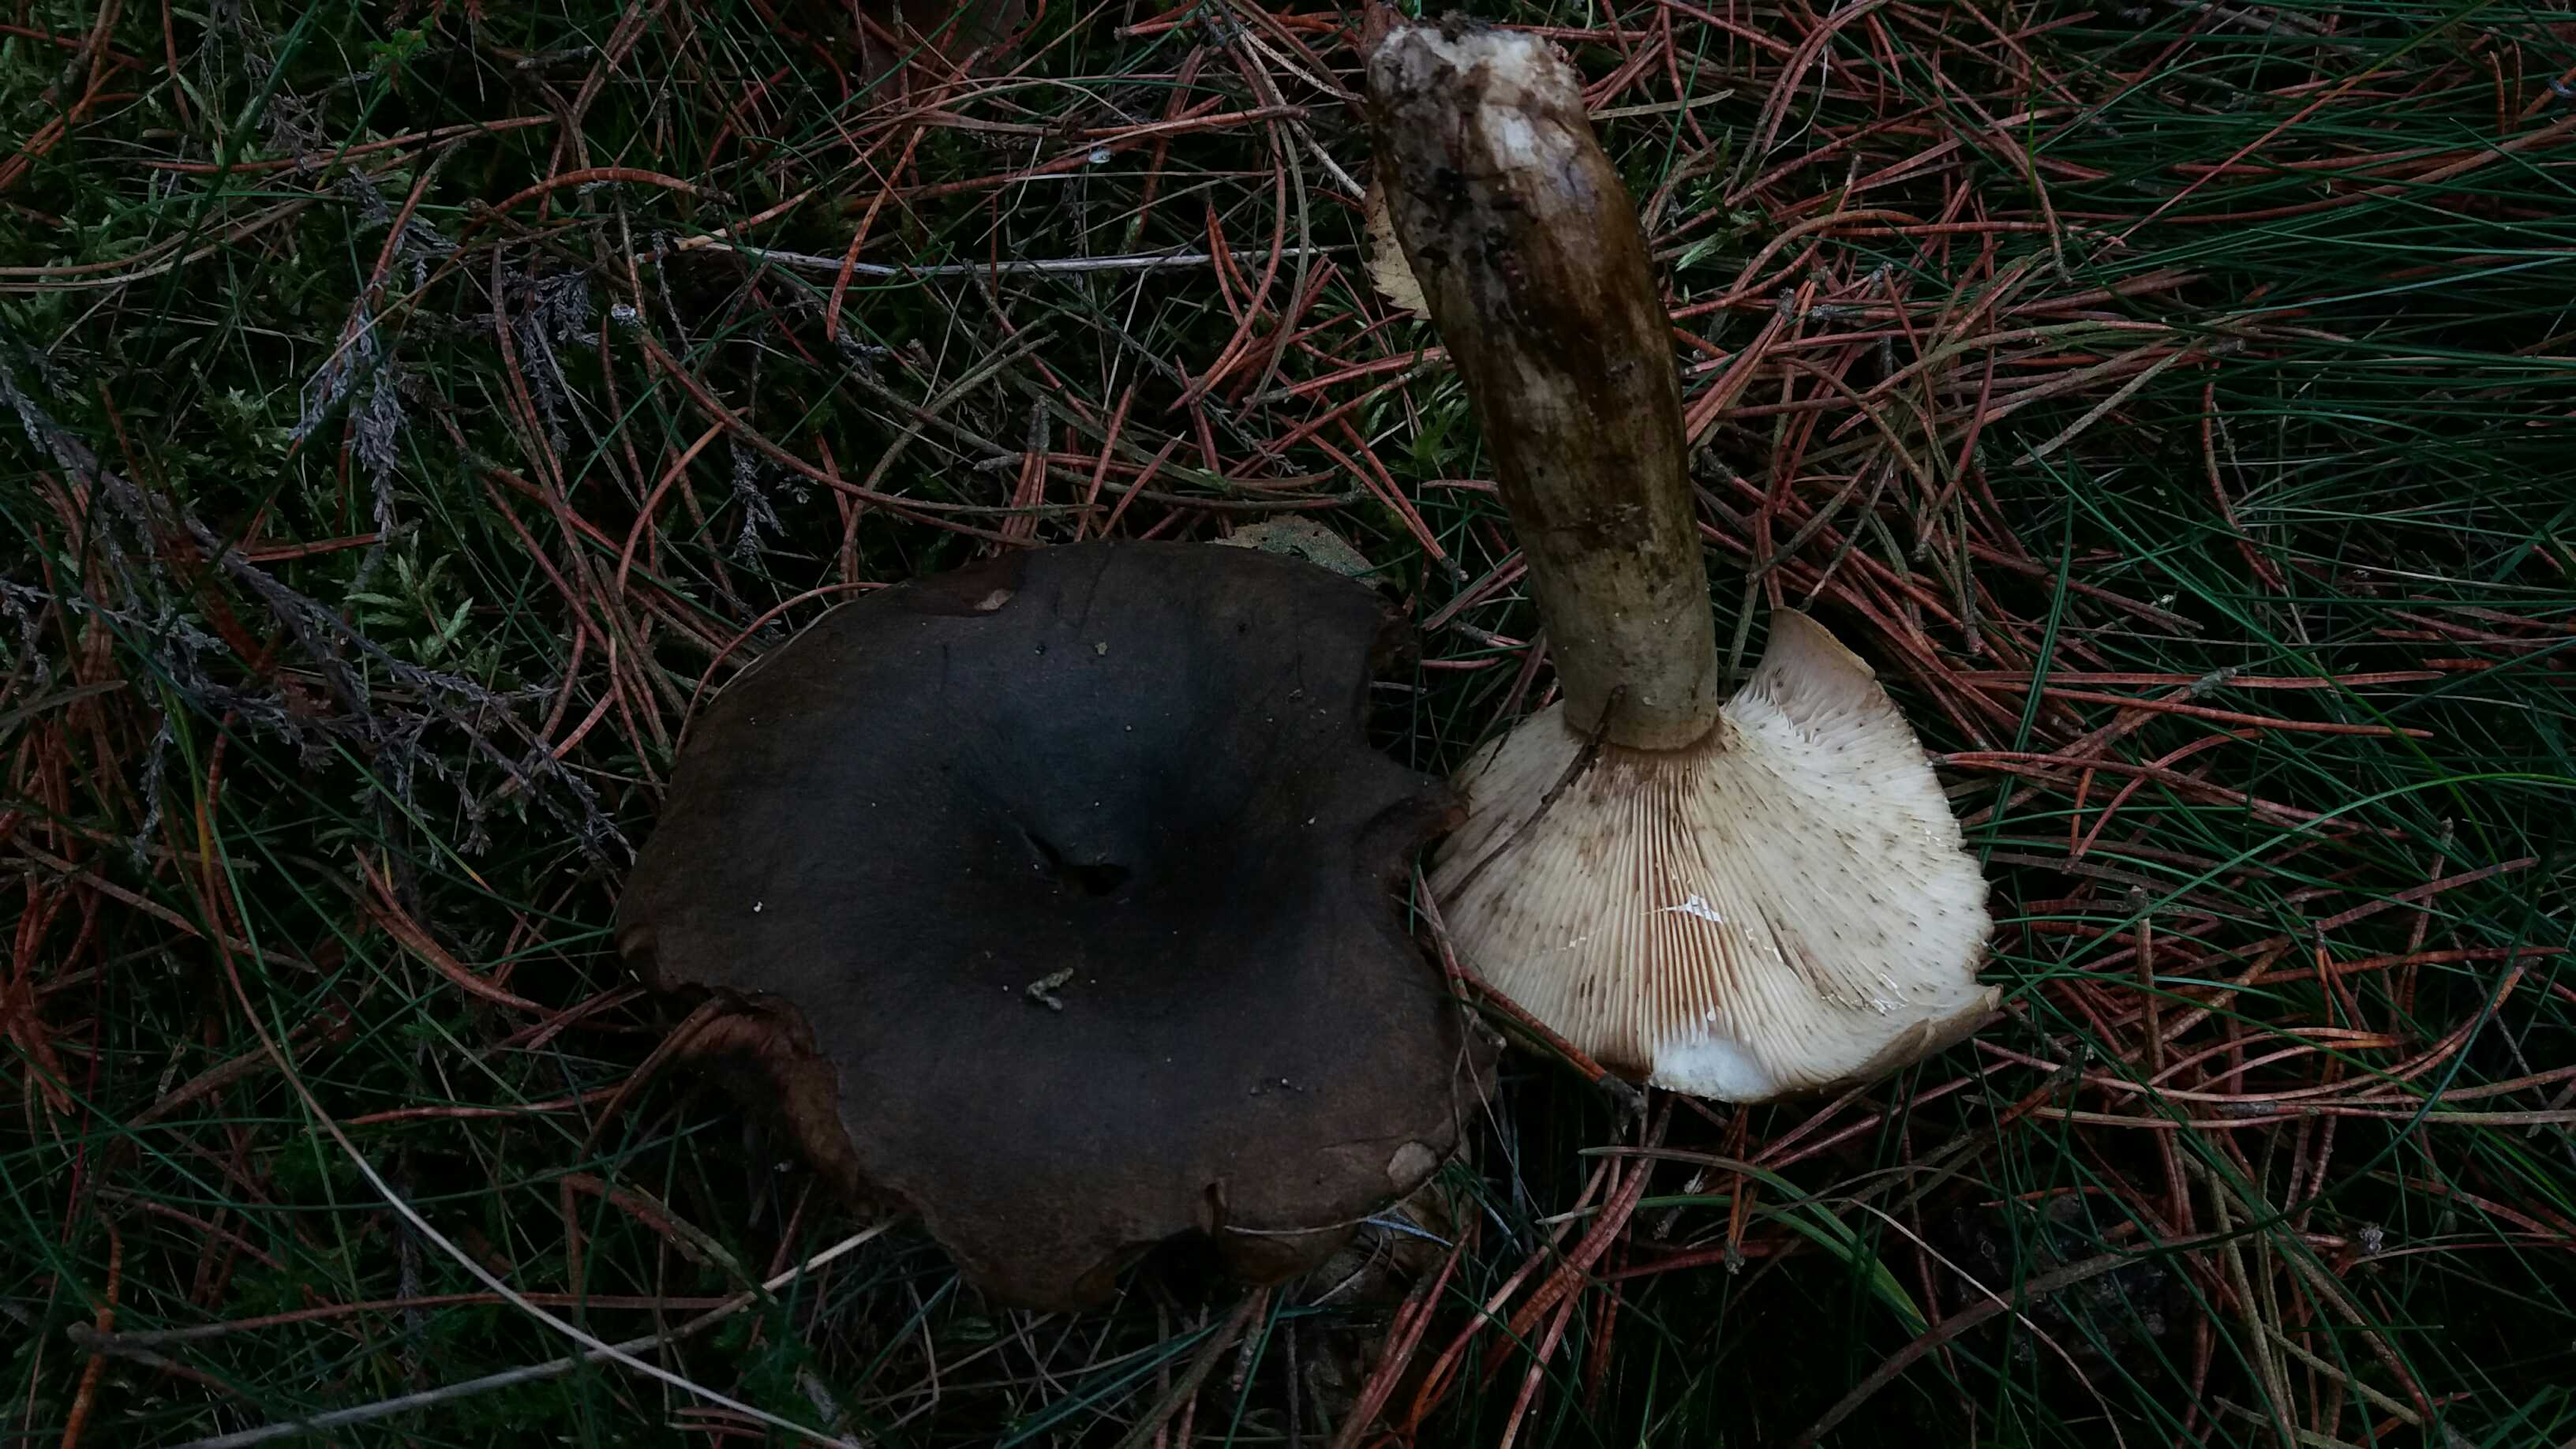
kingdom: Fungi
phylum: Basidiomycota
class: Agaricomycetes
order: Russulales
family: Russulaceae
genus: Lactarius
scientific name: Lactarius necator
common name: manddraber-mælkehat
